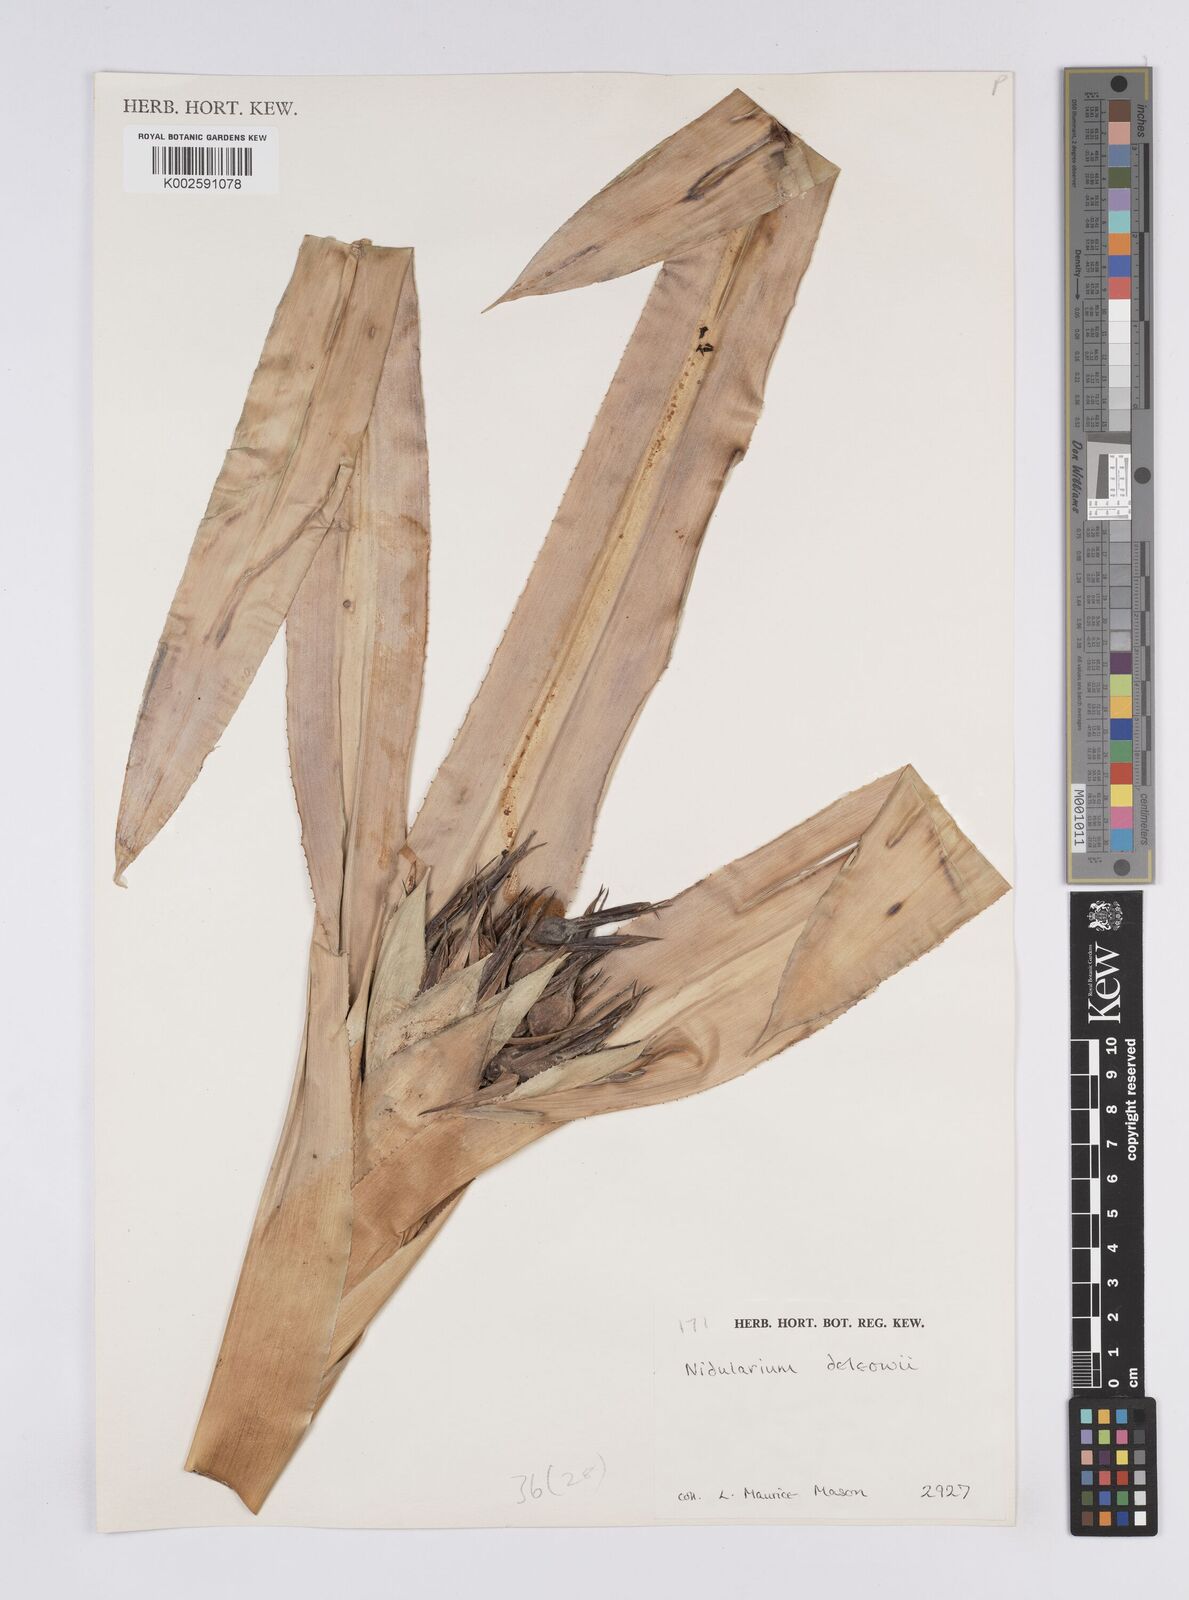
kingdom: Plantae
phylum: Tracheophyta
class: Liliopsida
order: Poales
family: Bromeliaceae
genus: Ronnbergia
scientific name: Ronnbergia deleonii
